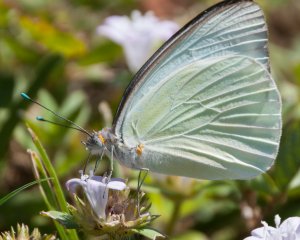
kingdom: Animalia
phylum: Arthropoda
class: Insecta
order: Lepidoptera
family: Pieridae
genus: Ascia
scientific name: Ascia monuste
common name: Great Southern White
